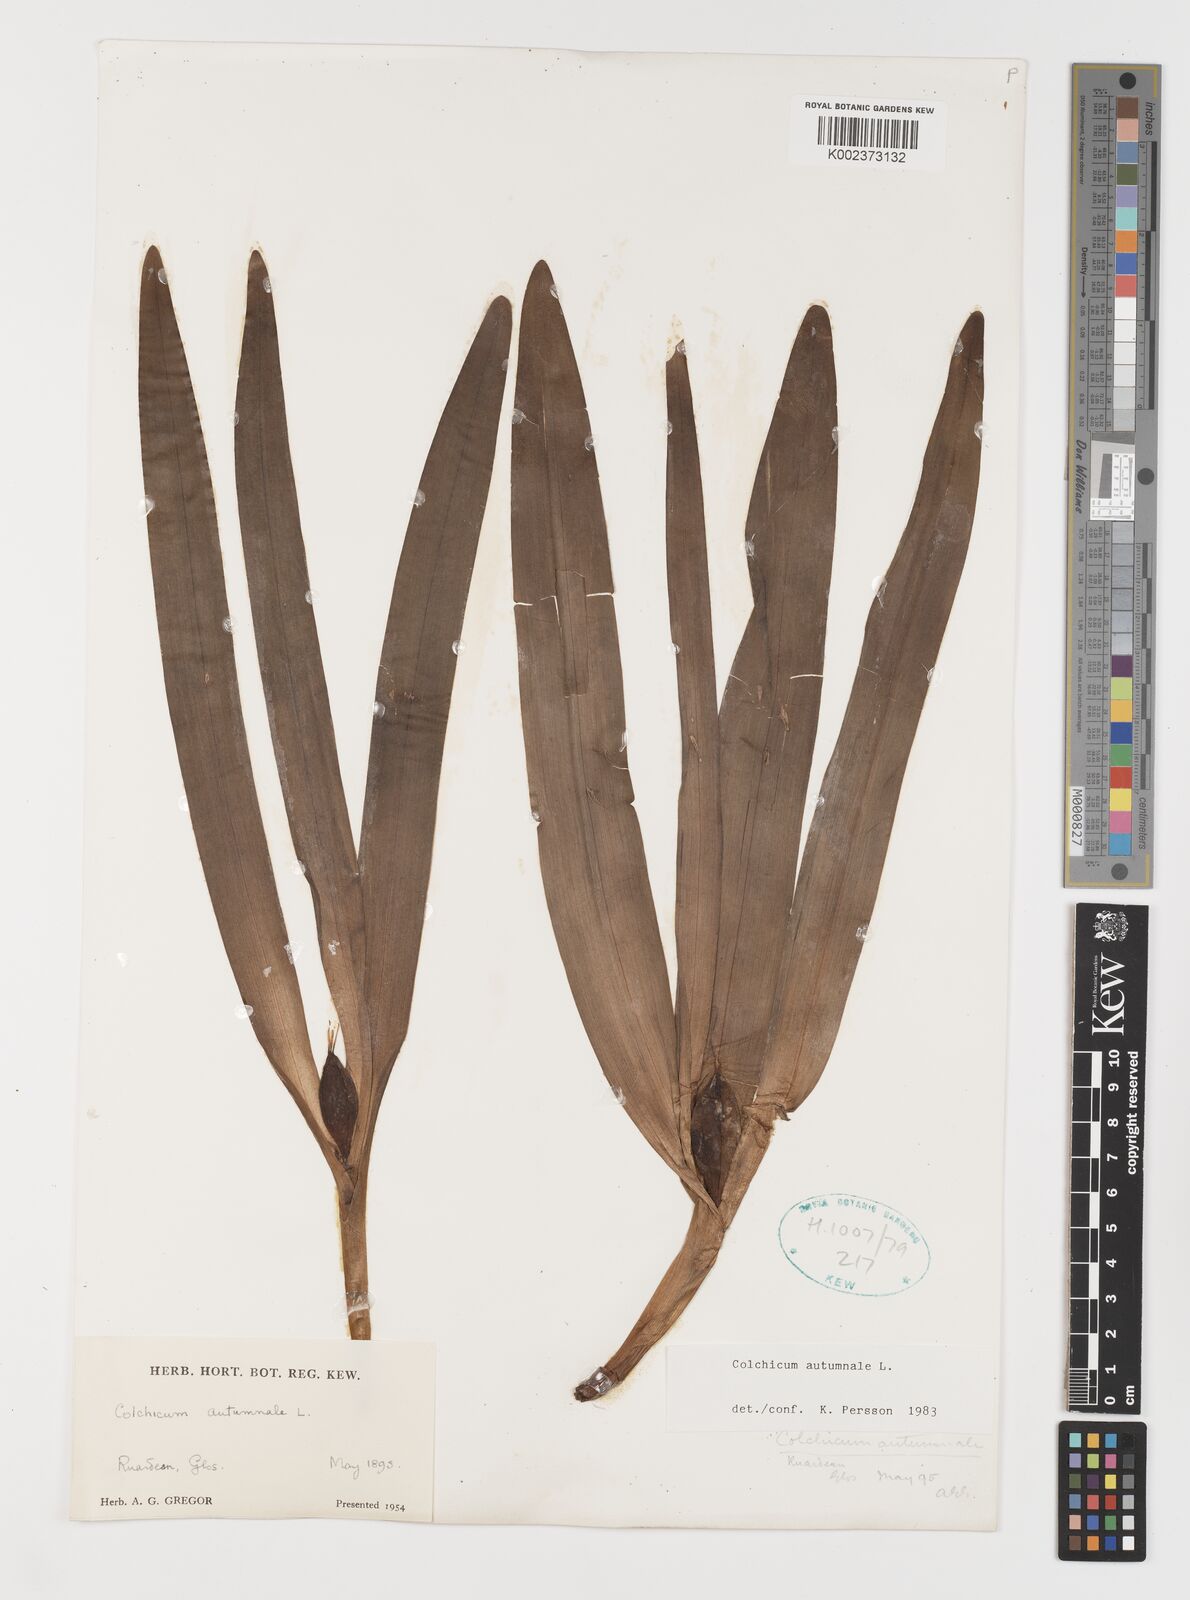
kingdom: Plantae
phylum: Tracheophyta
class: Liliopsida
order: Liliales
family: Colchicaceae
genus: Colchicum
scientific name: Colchicum autumnale
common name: Autumn crocus
